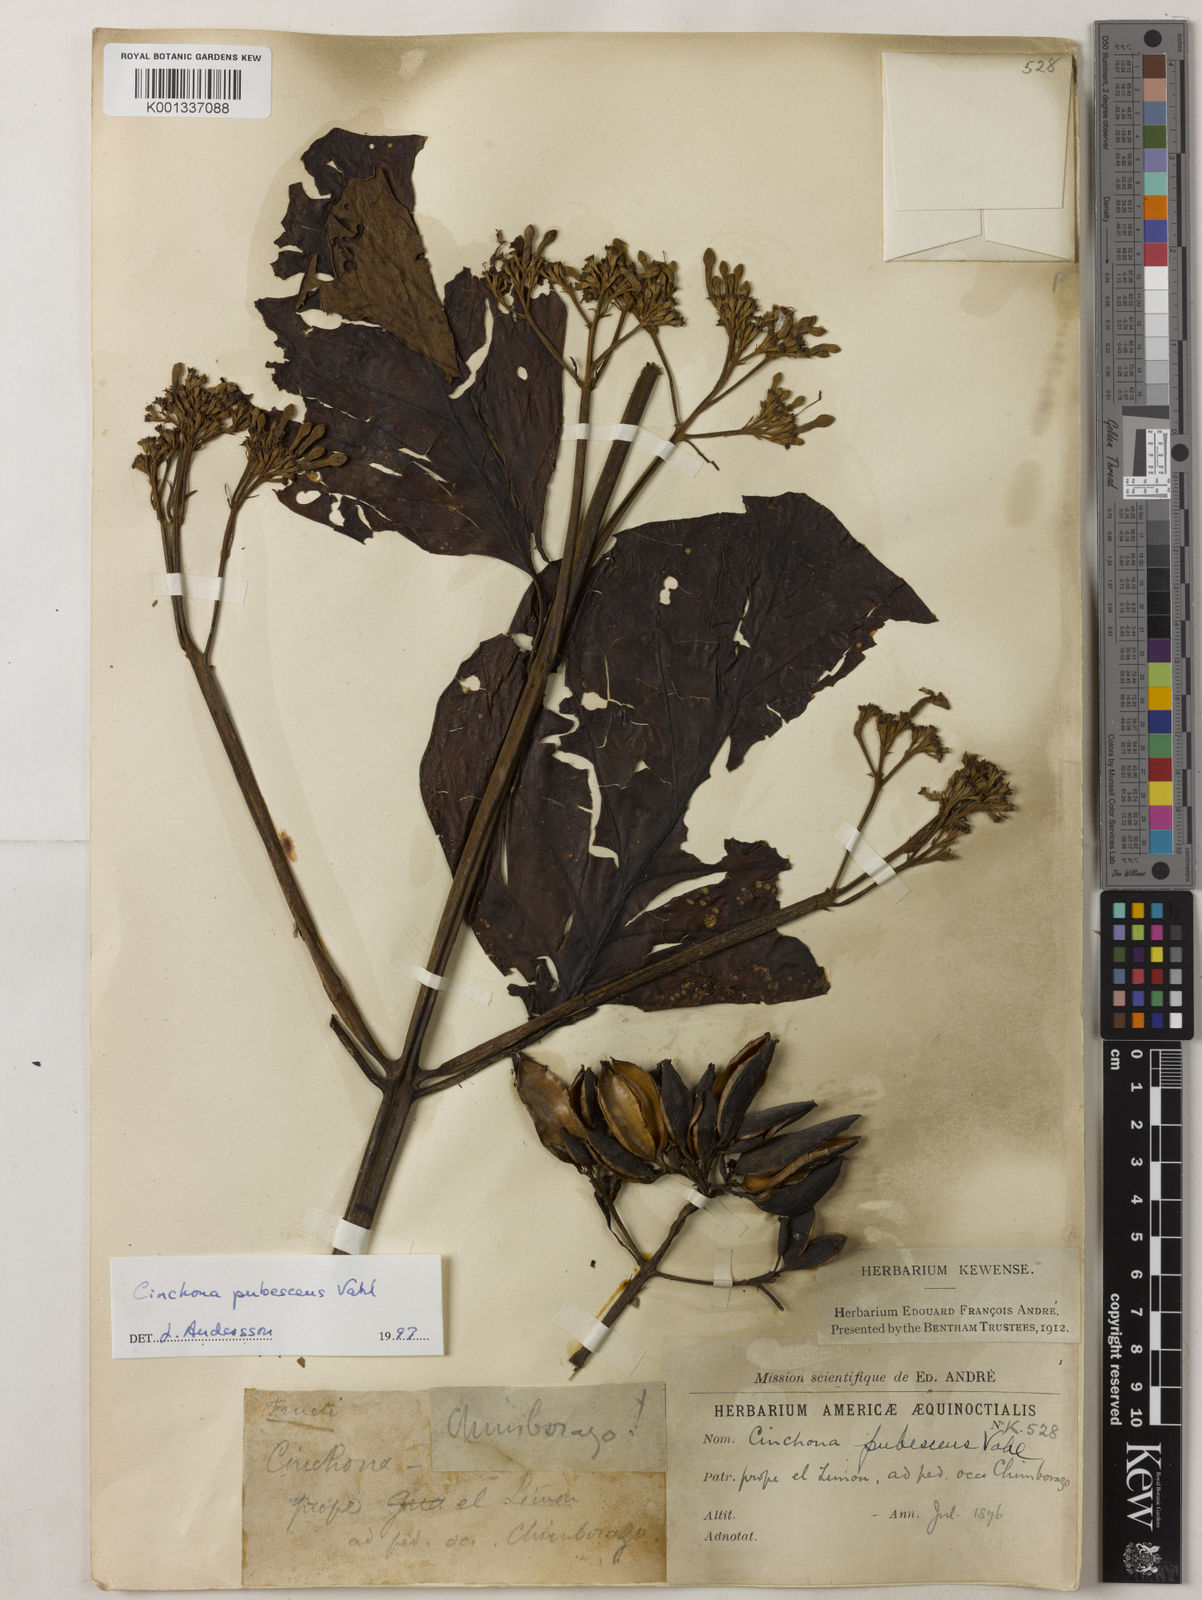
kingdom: Plantae
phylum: Tracheophyta
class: Magnoliopsida
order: Gentianales
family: Rubiaceae
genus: Cinchona
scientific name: Cinchona pubescens
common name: Quinine
